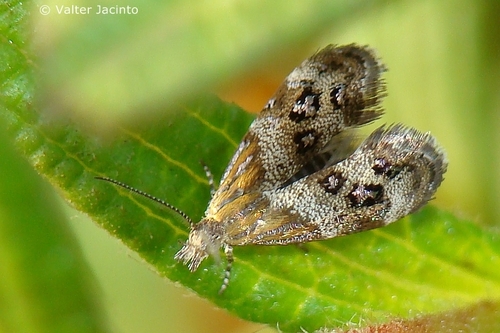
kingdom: Animalia
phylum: Arthropoda
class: Insecta
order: Lepidoptera
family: Choreutidae
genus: Tebenna
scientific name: Tebenna micalis
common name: Vagrant twitcher
